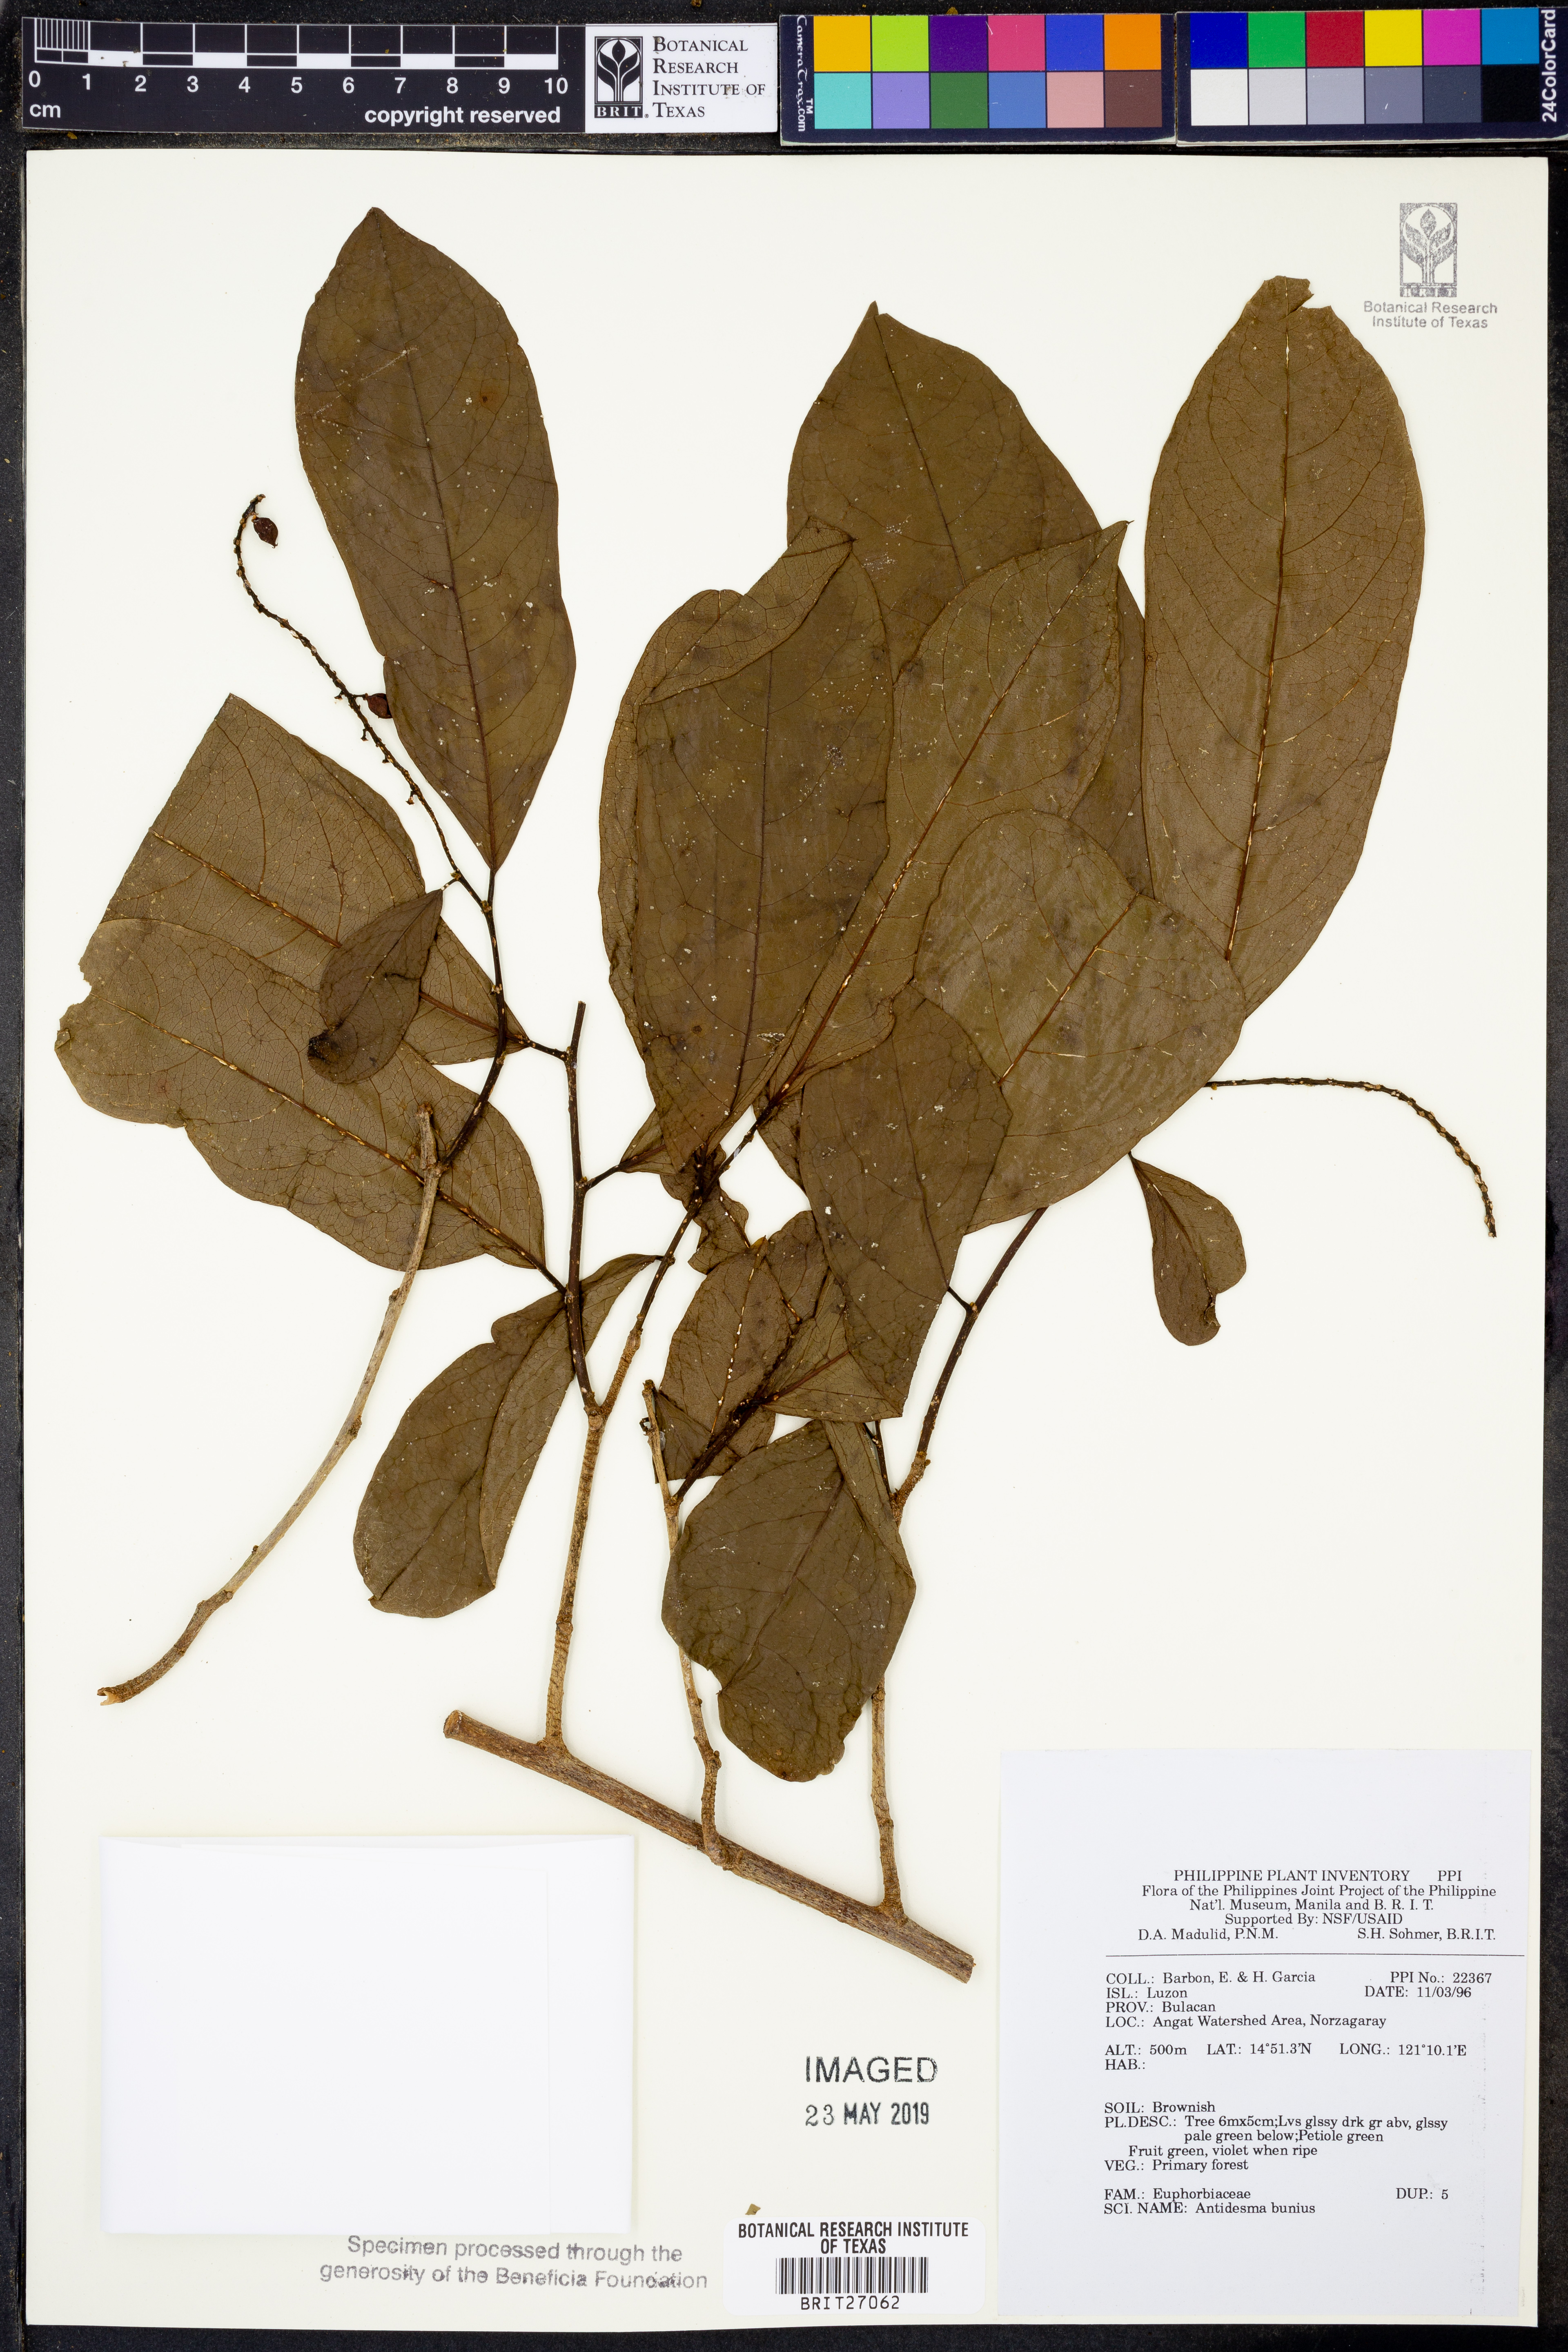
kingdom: Plantae
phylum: Tracheophyta
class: Magnoliopsida
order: Malpighiales
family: Phyllanthaceae
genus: Antidesma
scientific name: Antidesma bunius
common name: Chinese-laurel
